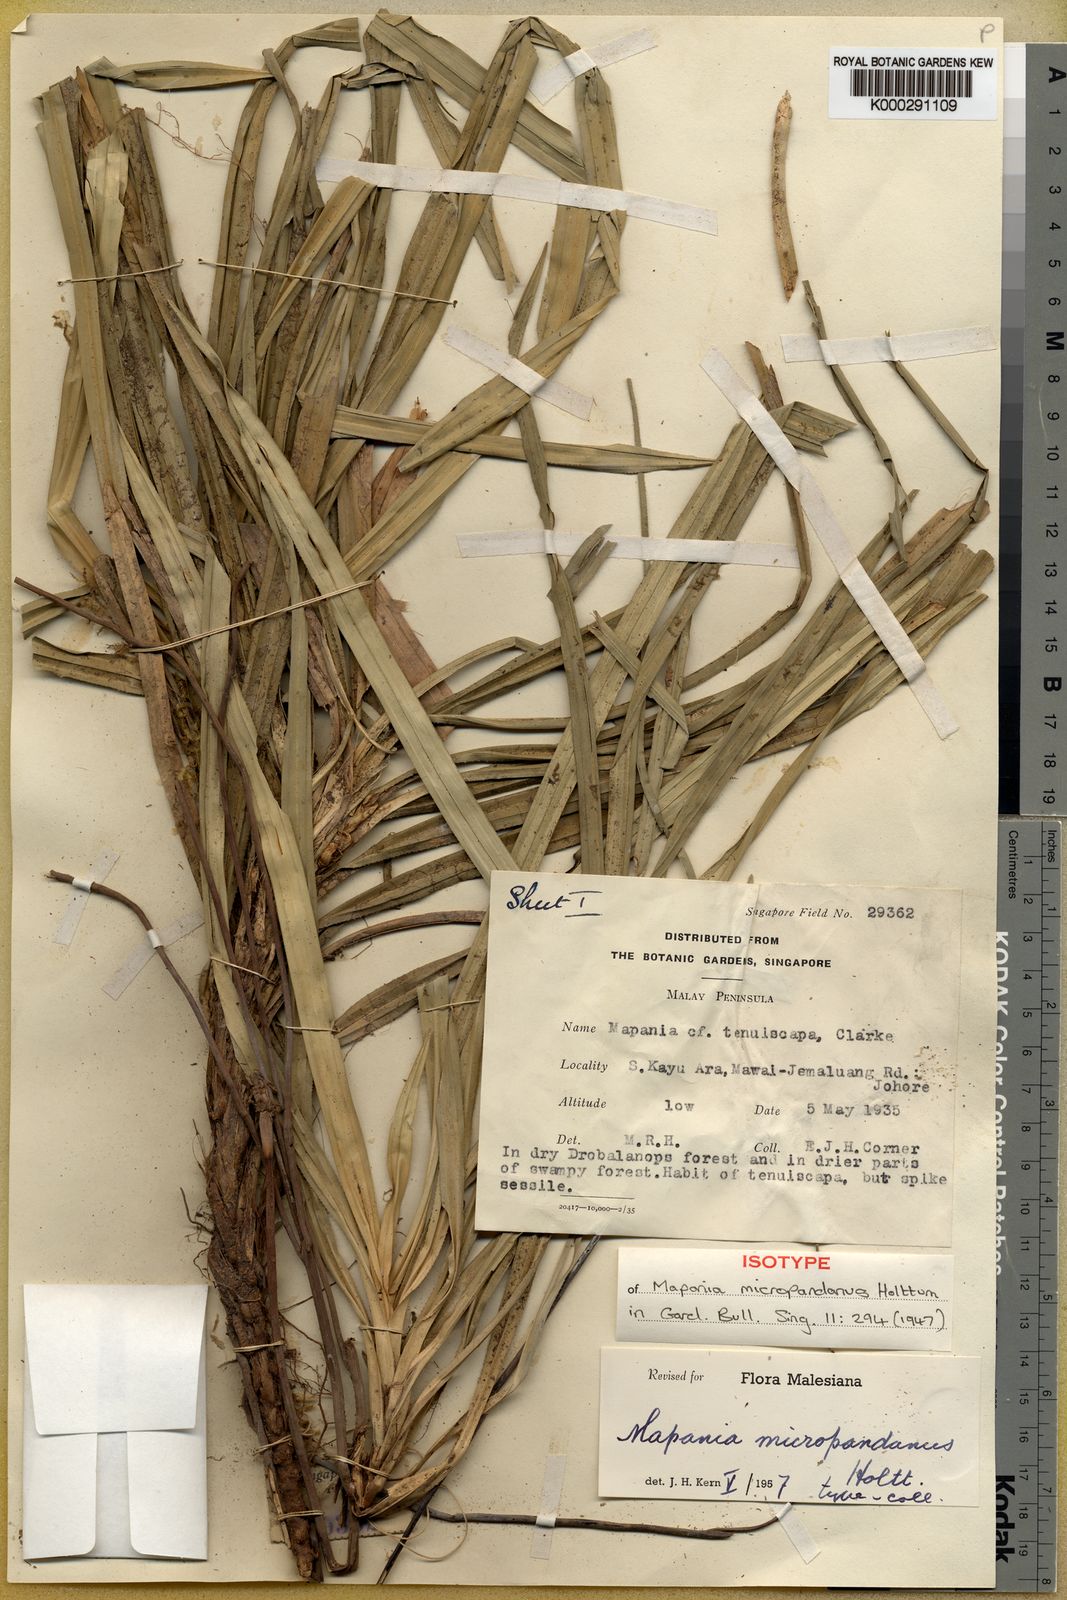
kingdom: Plantae
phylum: Tracheophyta
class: Liliopsida
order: Poales
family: Cyperaceae
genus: Mapania
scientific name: Mapania micropandanus
